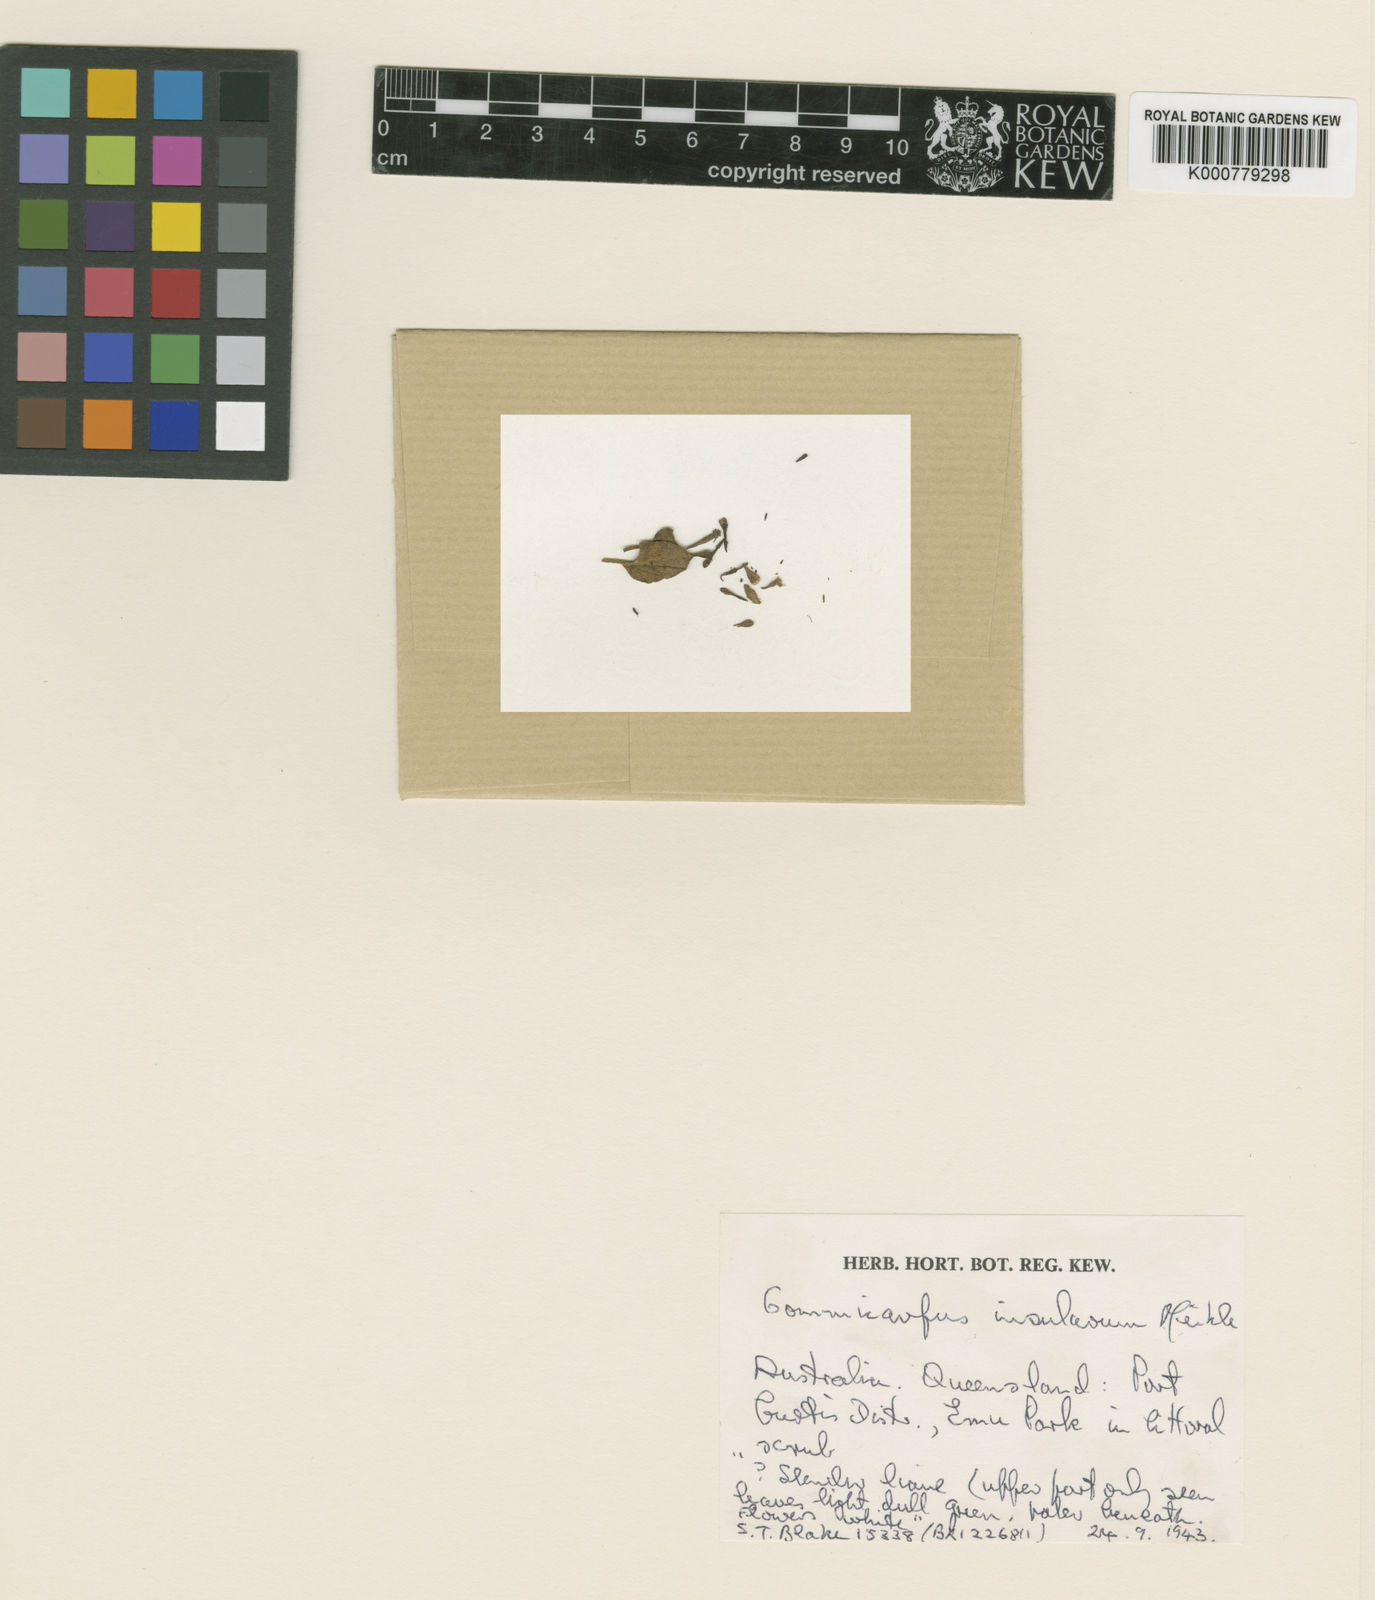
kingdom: Plantae
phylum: Tracheophyta
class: Magnoliopsida
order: Caryophyllales
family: Nyctaginaceae
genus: Commicarpus
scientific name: Commicarpus insularum
